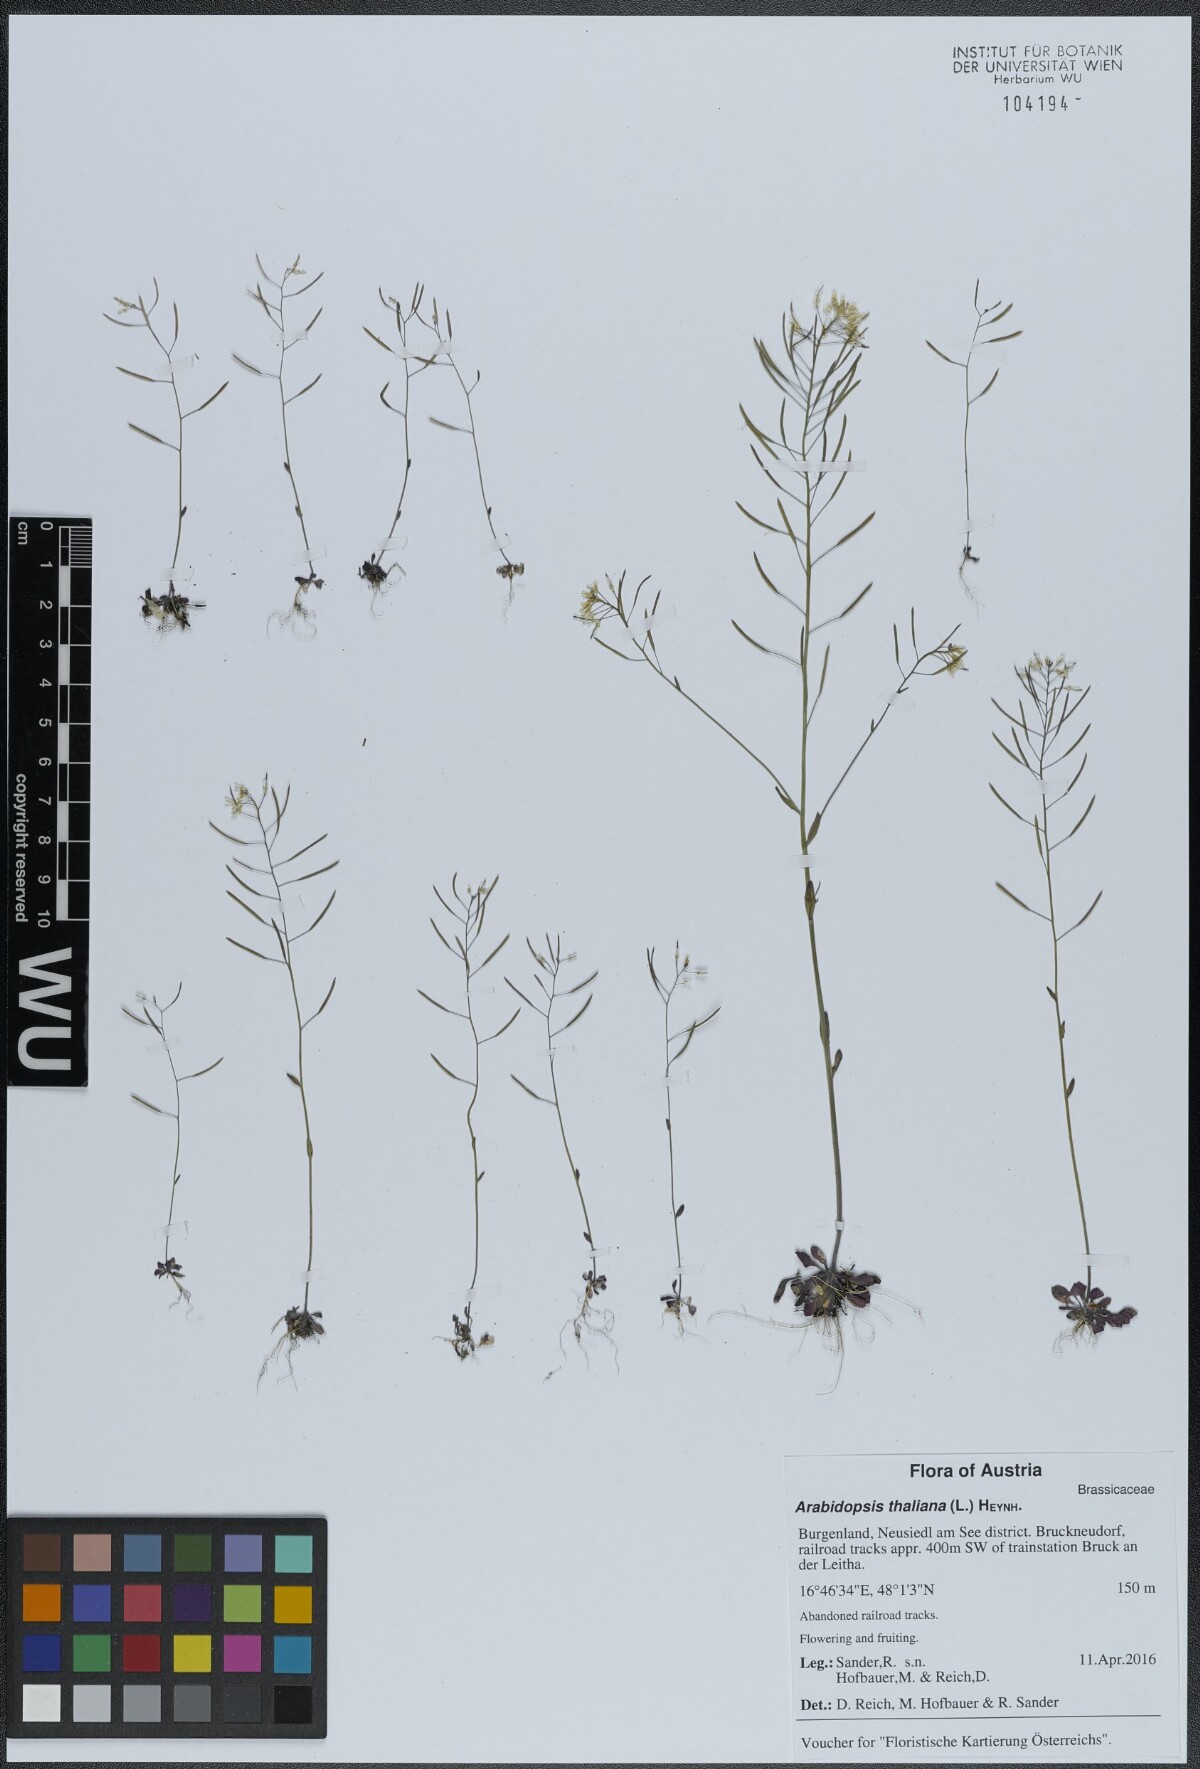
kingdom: Plantae
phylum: Tracheophyta
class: Magnoliopsida
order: Brassicales
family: Brassicaceae
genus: Arabidopsis
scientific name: Arabidopsis thaliana
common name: Thale cress
